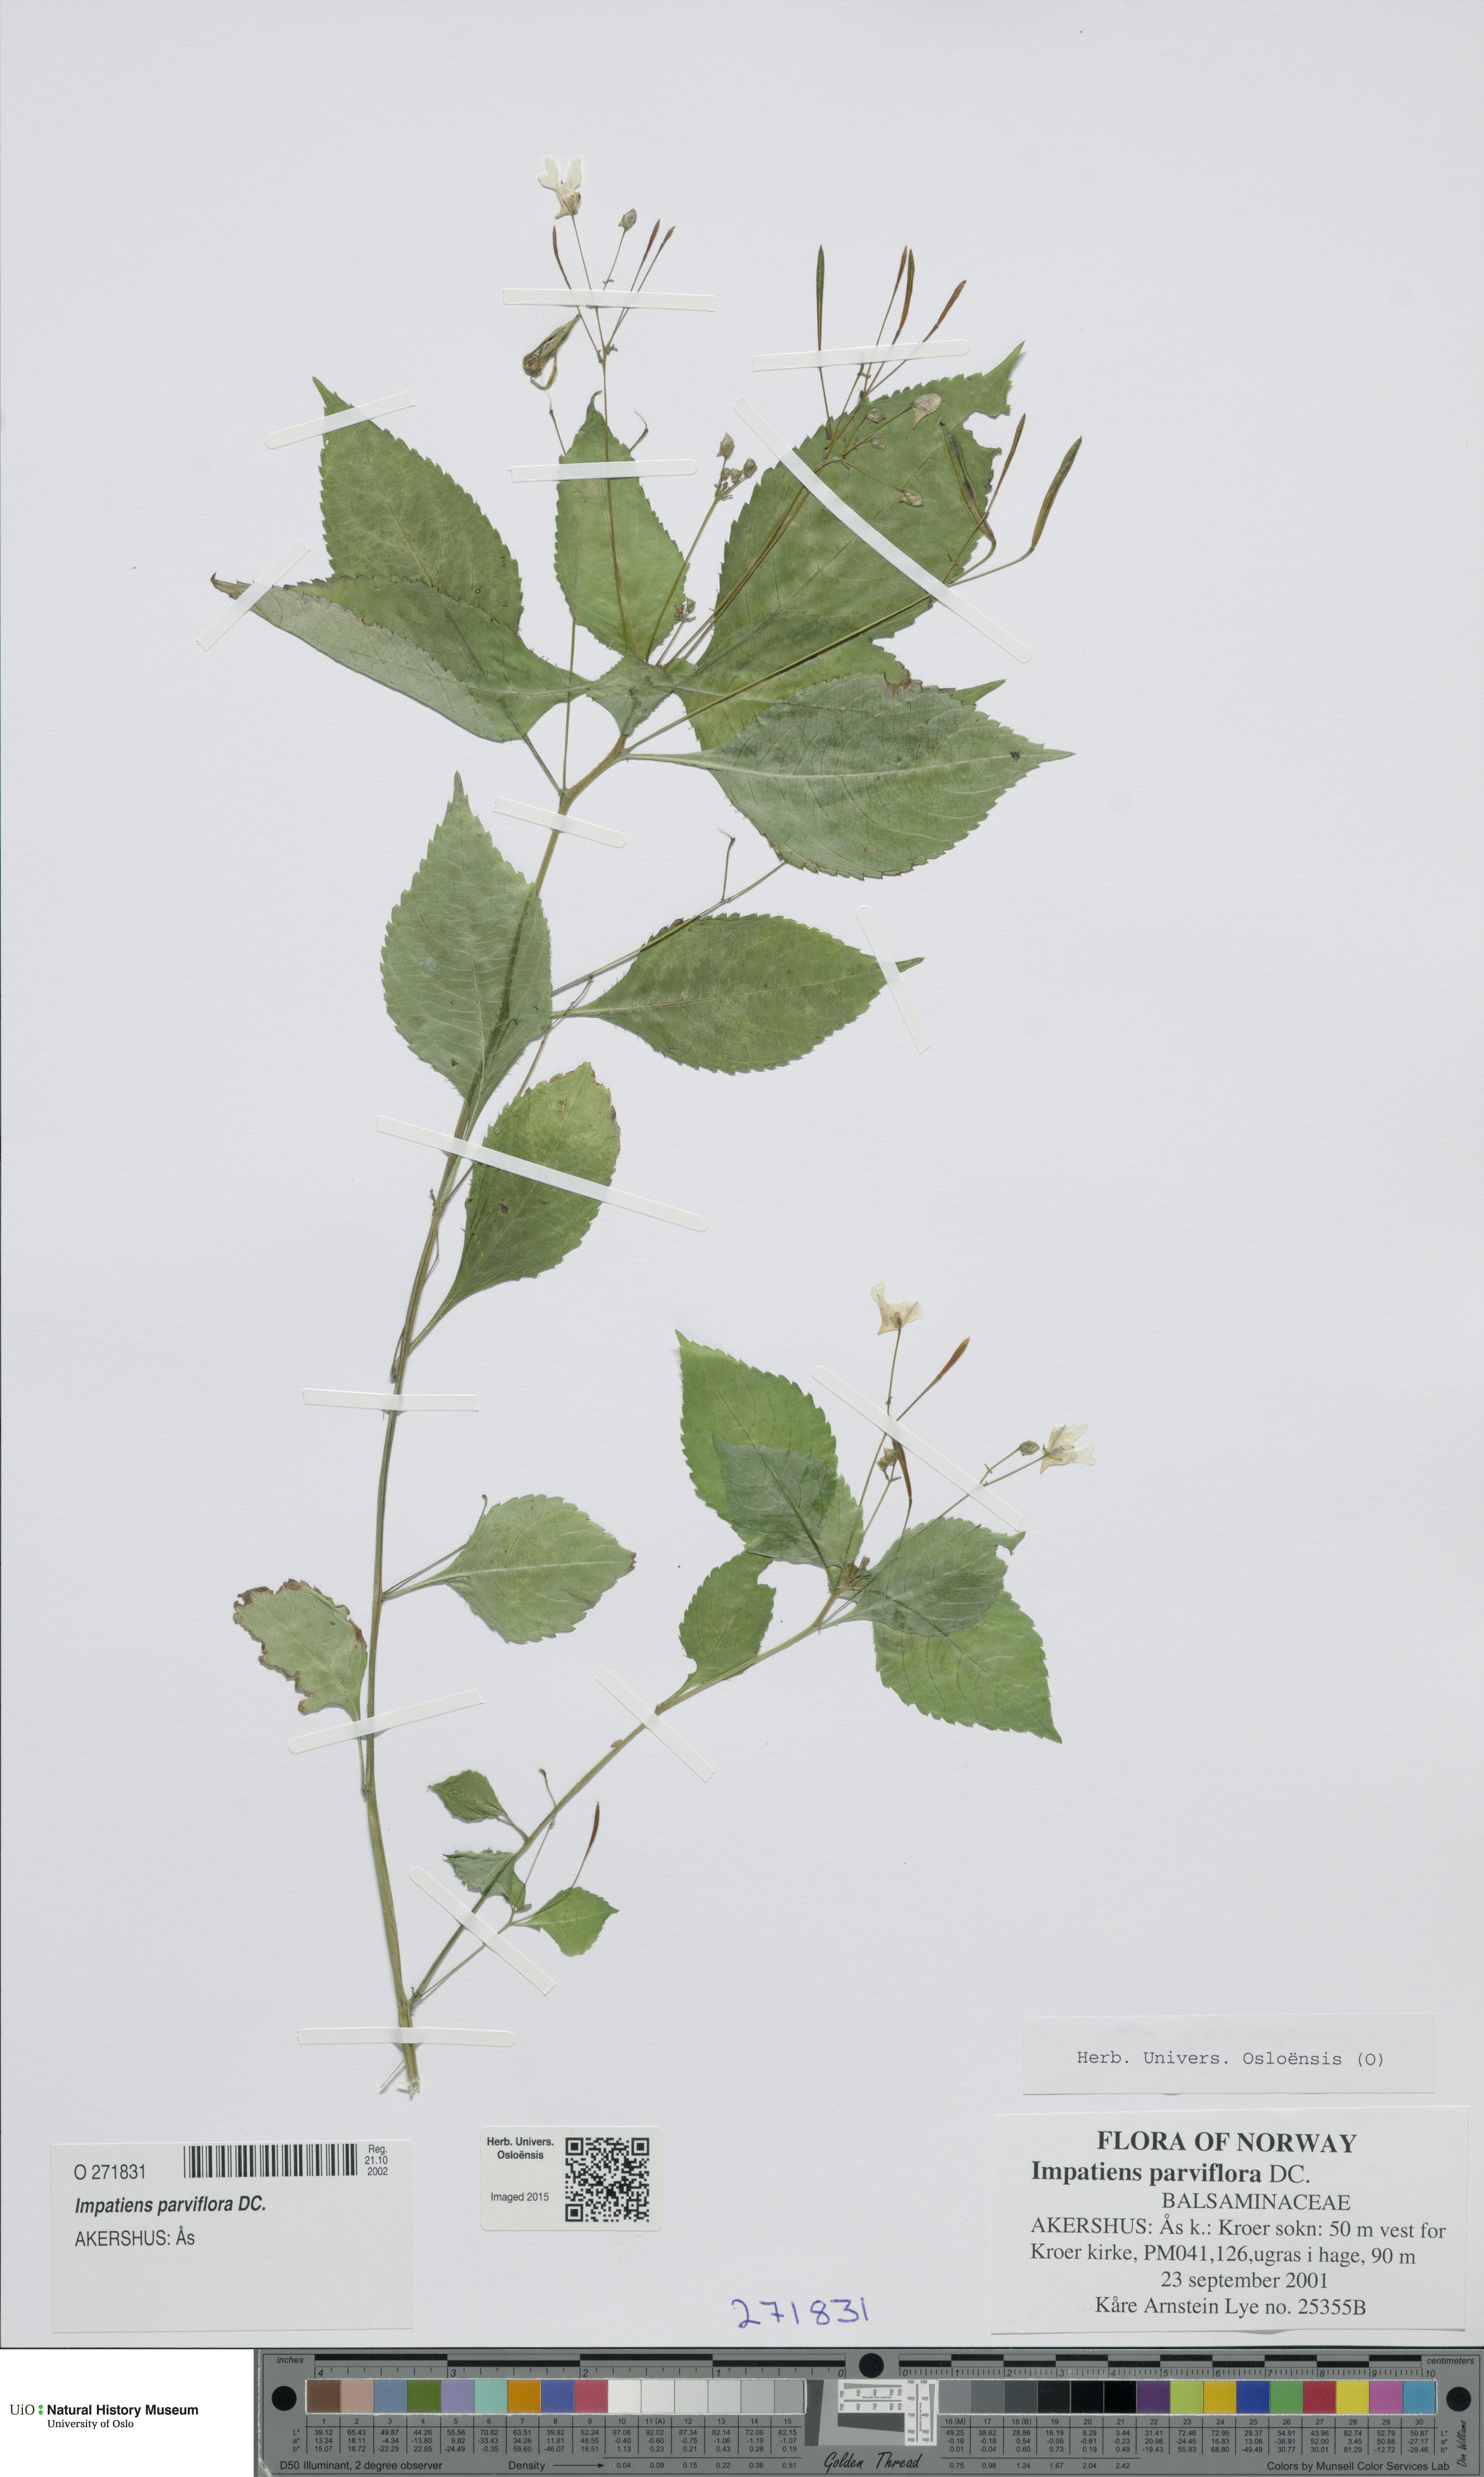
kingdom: Plantae
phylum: Tracheophyta
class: Magnoliopsida
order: Ericales
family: Balsaminaceae
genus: Impatiens
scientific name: Impatiens parviflora
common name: Small balsam
